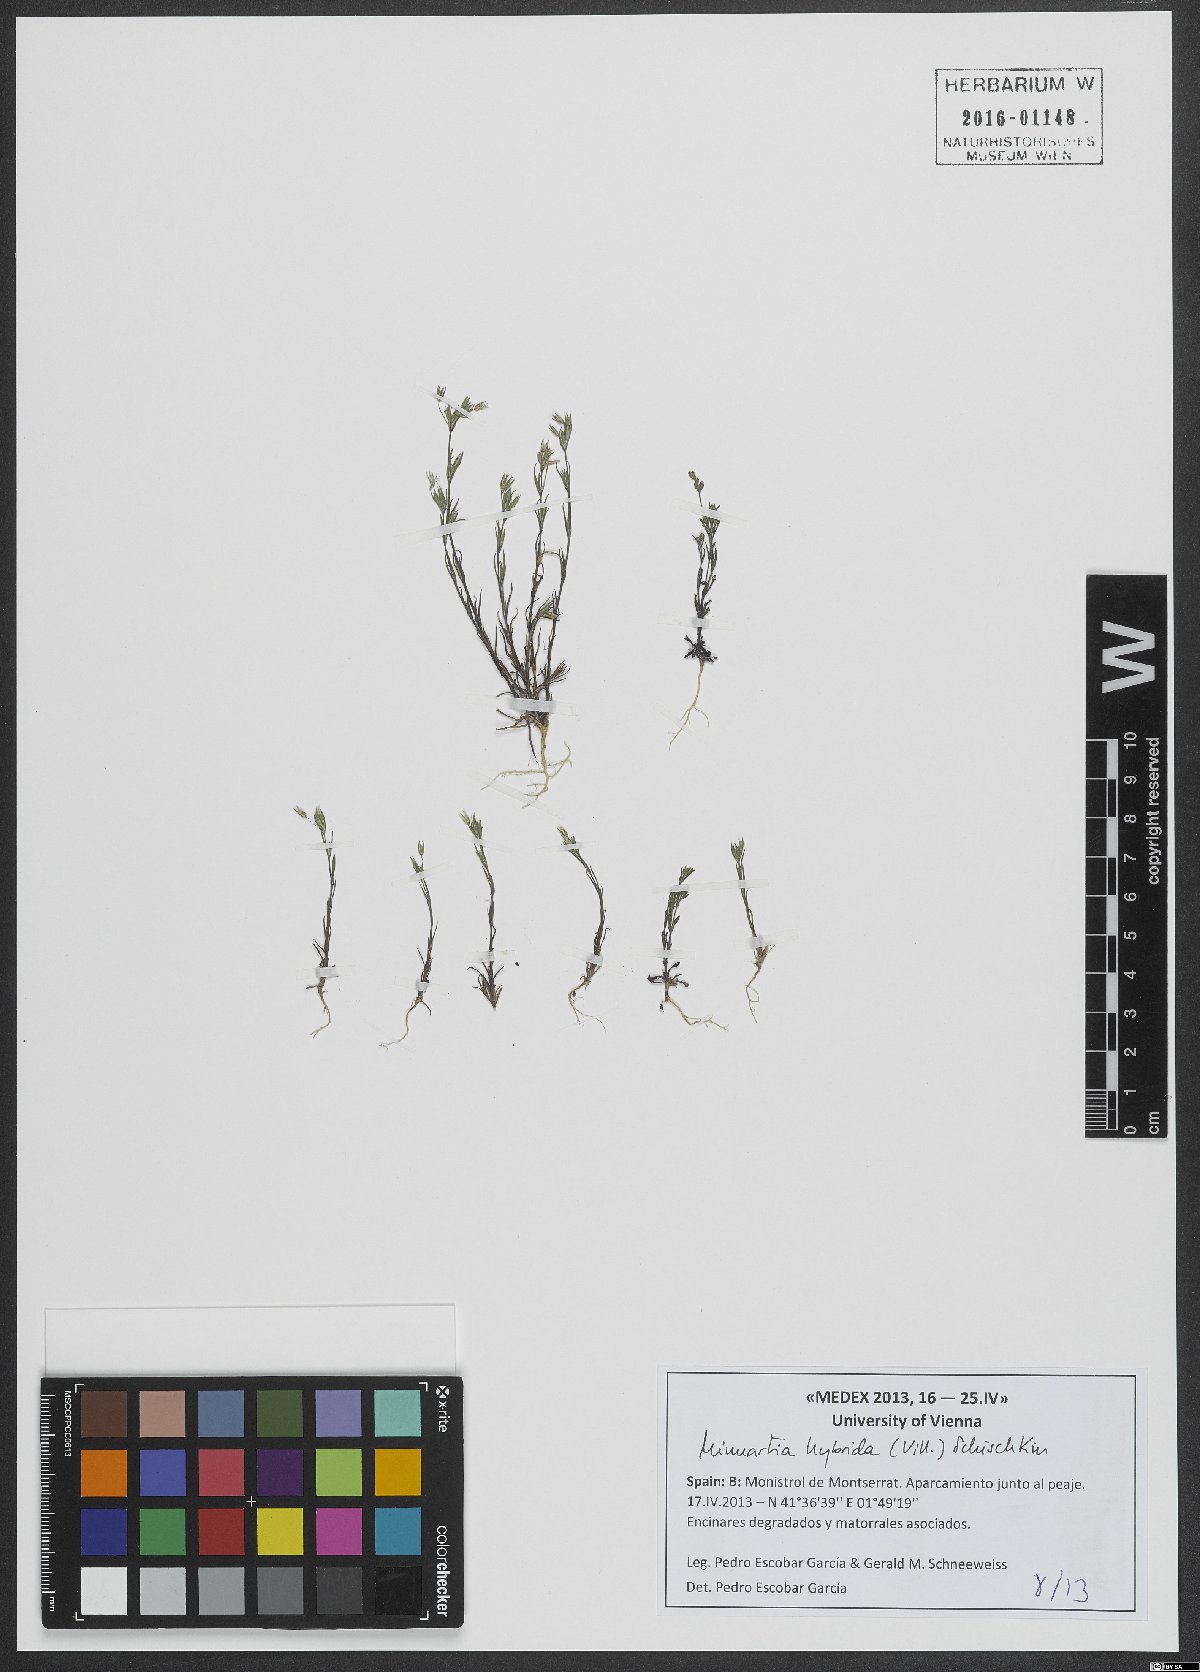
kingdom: Plantae
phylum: Tracheophyta
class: Magnoliopsida
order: Caryophyllales
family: Caryophyllaceae
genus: Sabulina
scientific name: Sabulina tenuifolia
